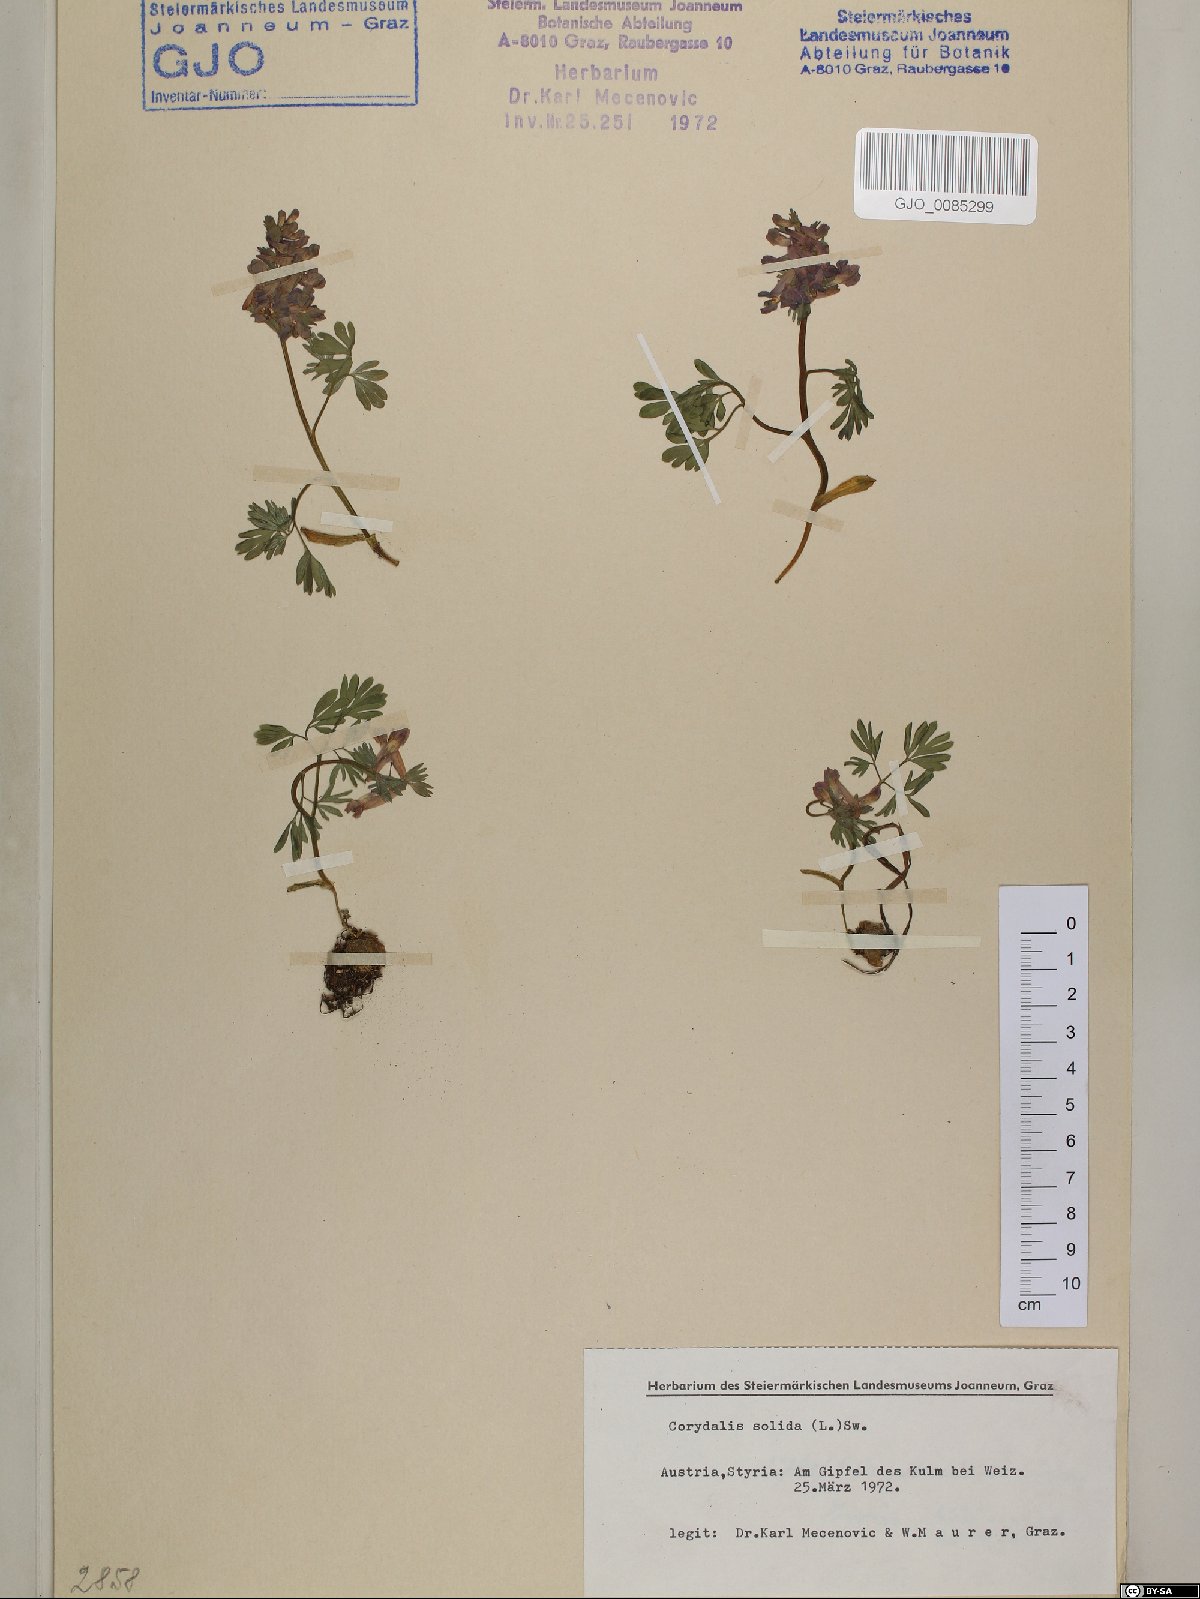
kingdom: Plantae
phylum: Tracheophyta
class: Magnoliopsida
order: Ranunculales
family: Papaveraceae
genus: Corydalis
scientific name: Corydalis solida
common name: Bird-in-a-bush
